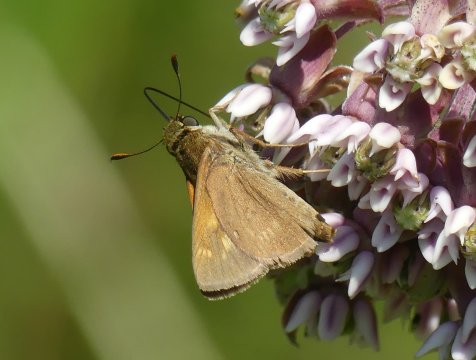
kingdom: Animalia
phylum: Arthropoda
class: Insecta
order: Lepidoptera
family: Hesperiidae
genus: Polites
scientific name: Polites
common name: Crossline Skipper
